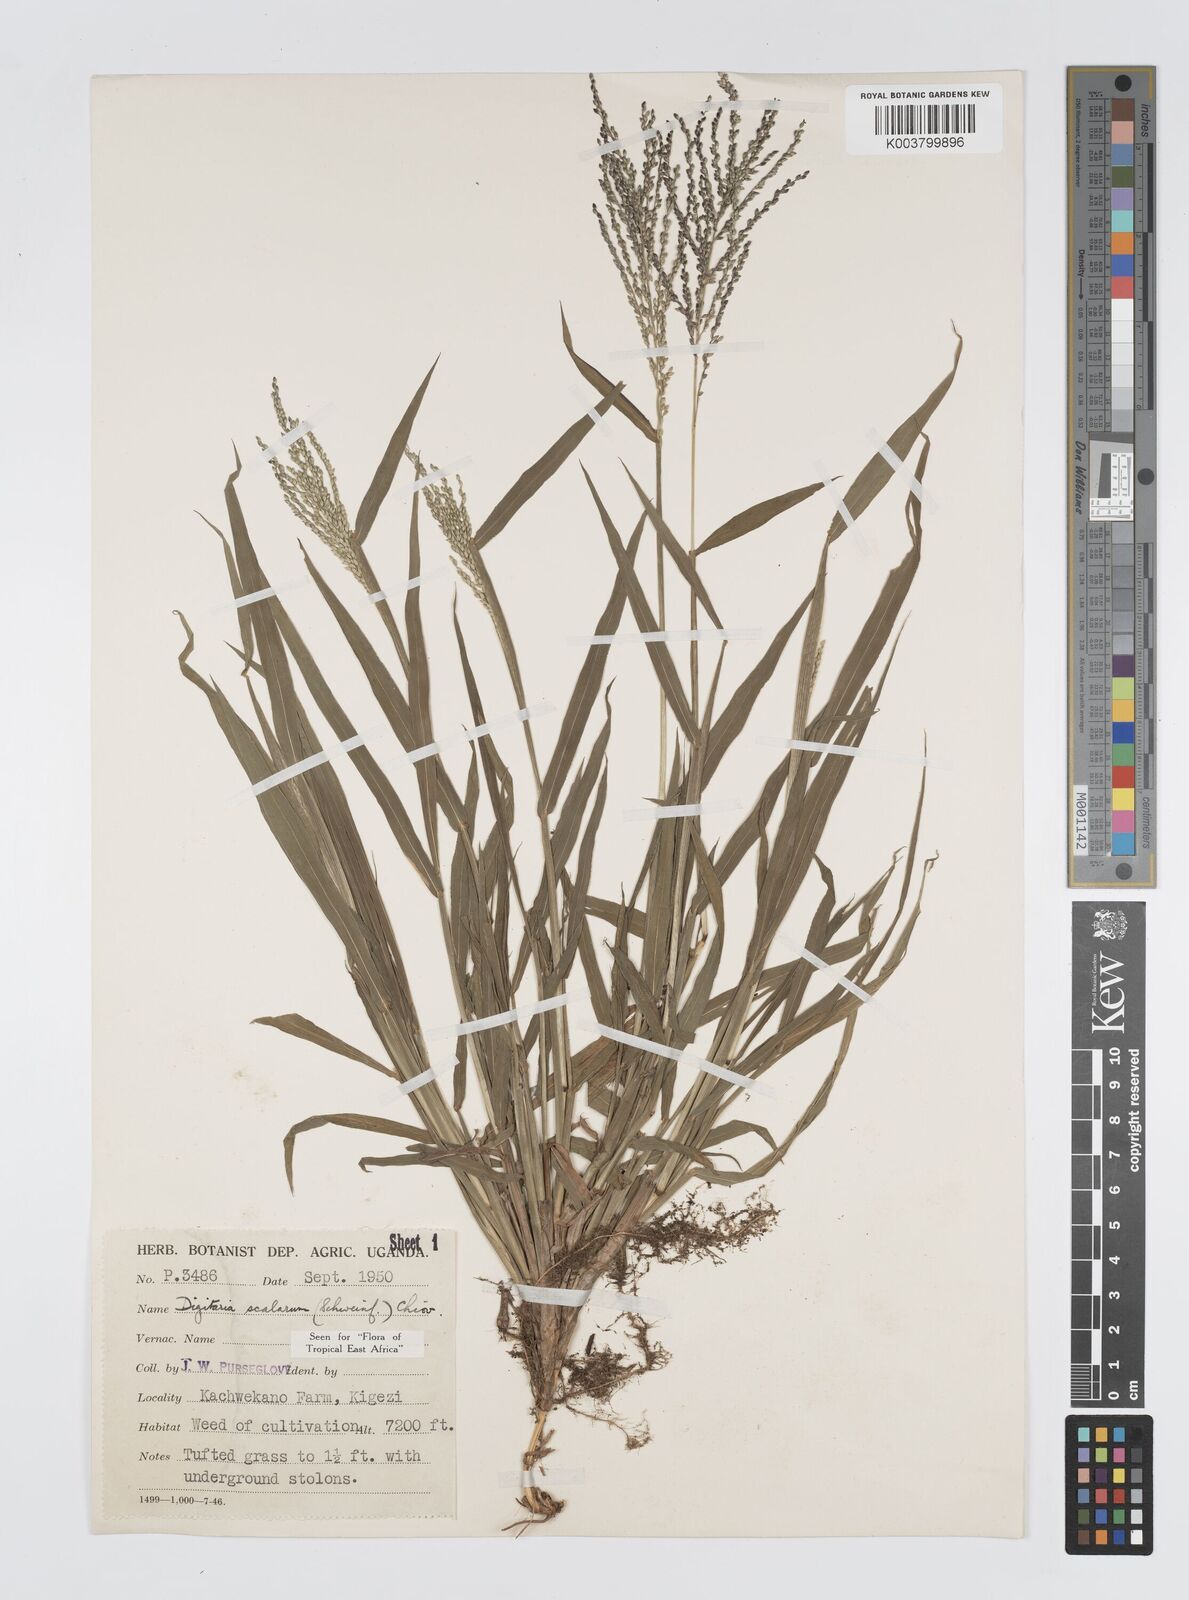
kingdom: Plantae
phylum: Tracheophyta
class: Liliopsida
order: Poales
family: Poaceae
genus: Digitaria
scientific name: Digitaria abyssinica
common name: African couchgrass
